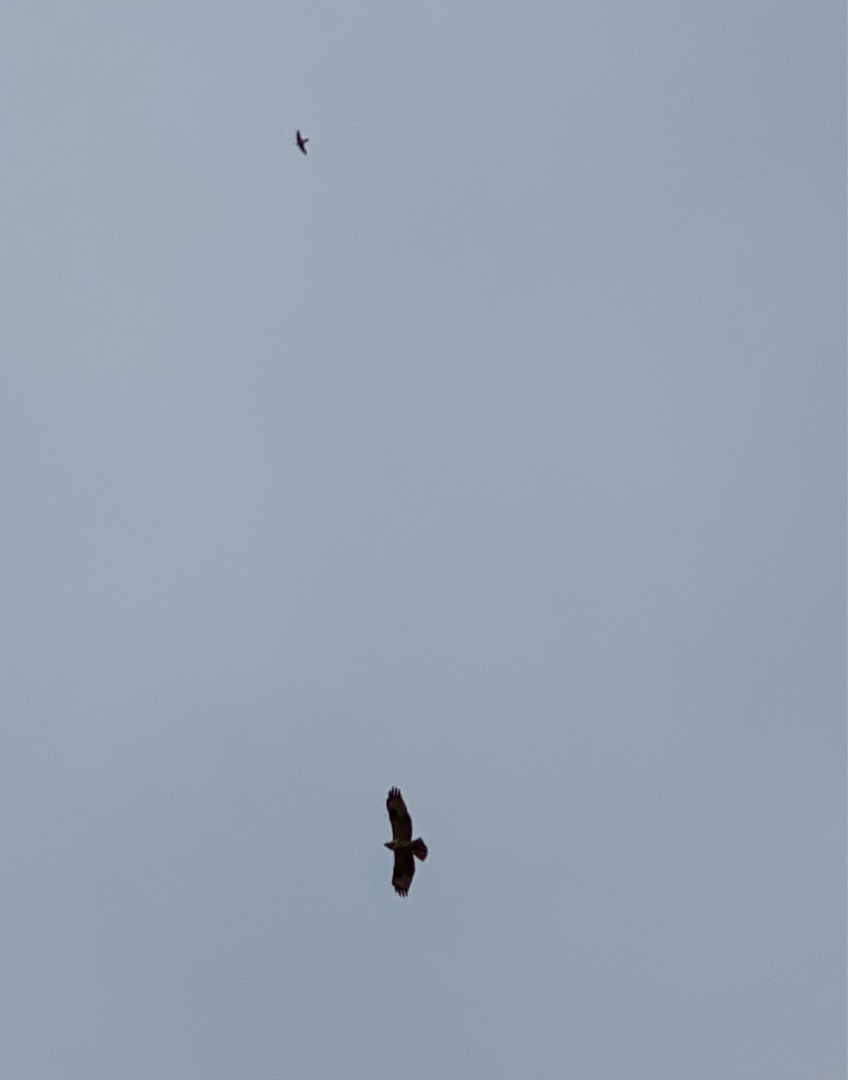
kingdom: Animalia
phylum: Chordata
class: Aves
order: Accipitriformes
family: Accipitridae
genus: Buteo
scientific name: Buteo buteo
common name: Musvåge
